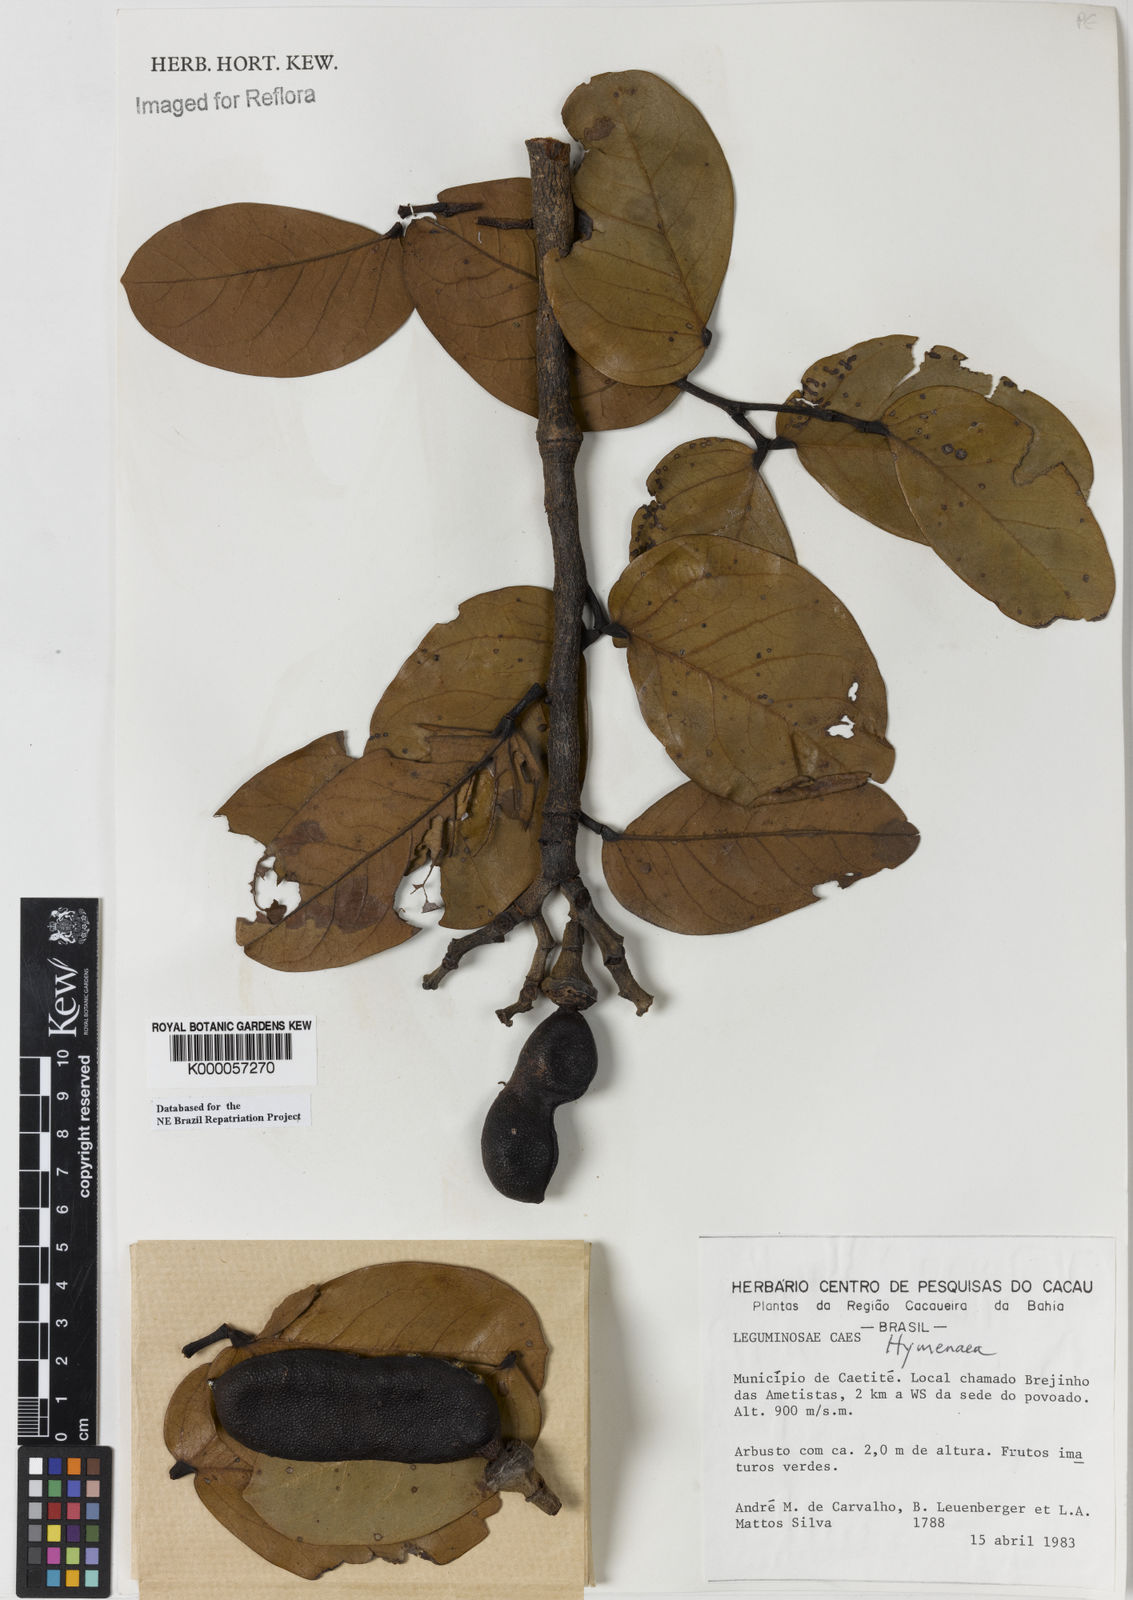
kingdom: Plantae
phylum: Tracheophyta
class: Magnoliopsida
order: Fabales
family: Fabaceae
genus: Hymenaea
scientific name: Hymenaea stigonocarpa
